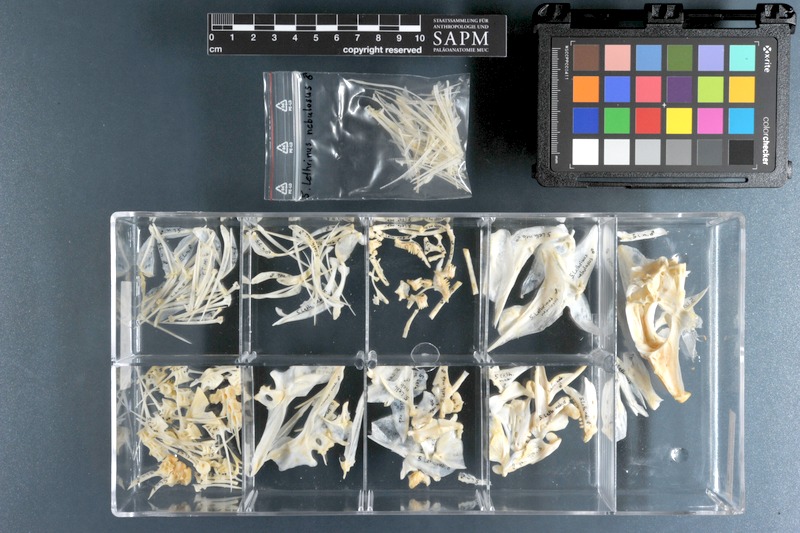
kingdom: Animalia
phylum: Chordata
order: Perciformes
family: Lethrinidae
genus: Lethrinus
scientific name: Lethrinus nebulosus
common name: Spangled emperor
